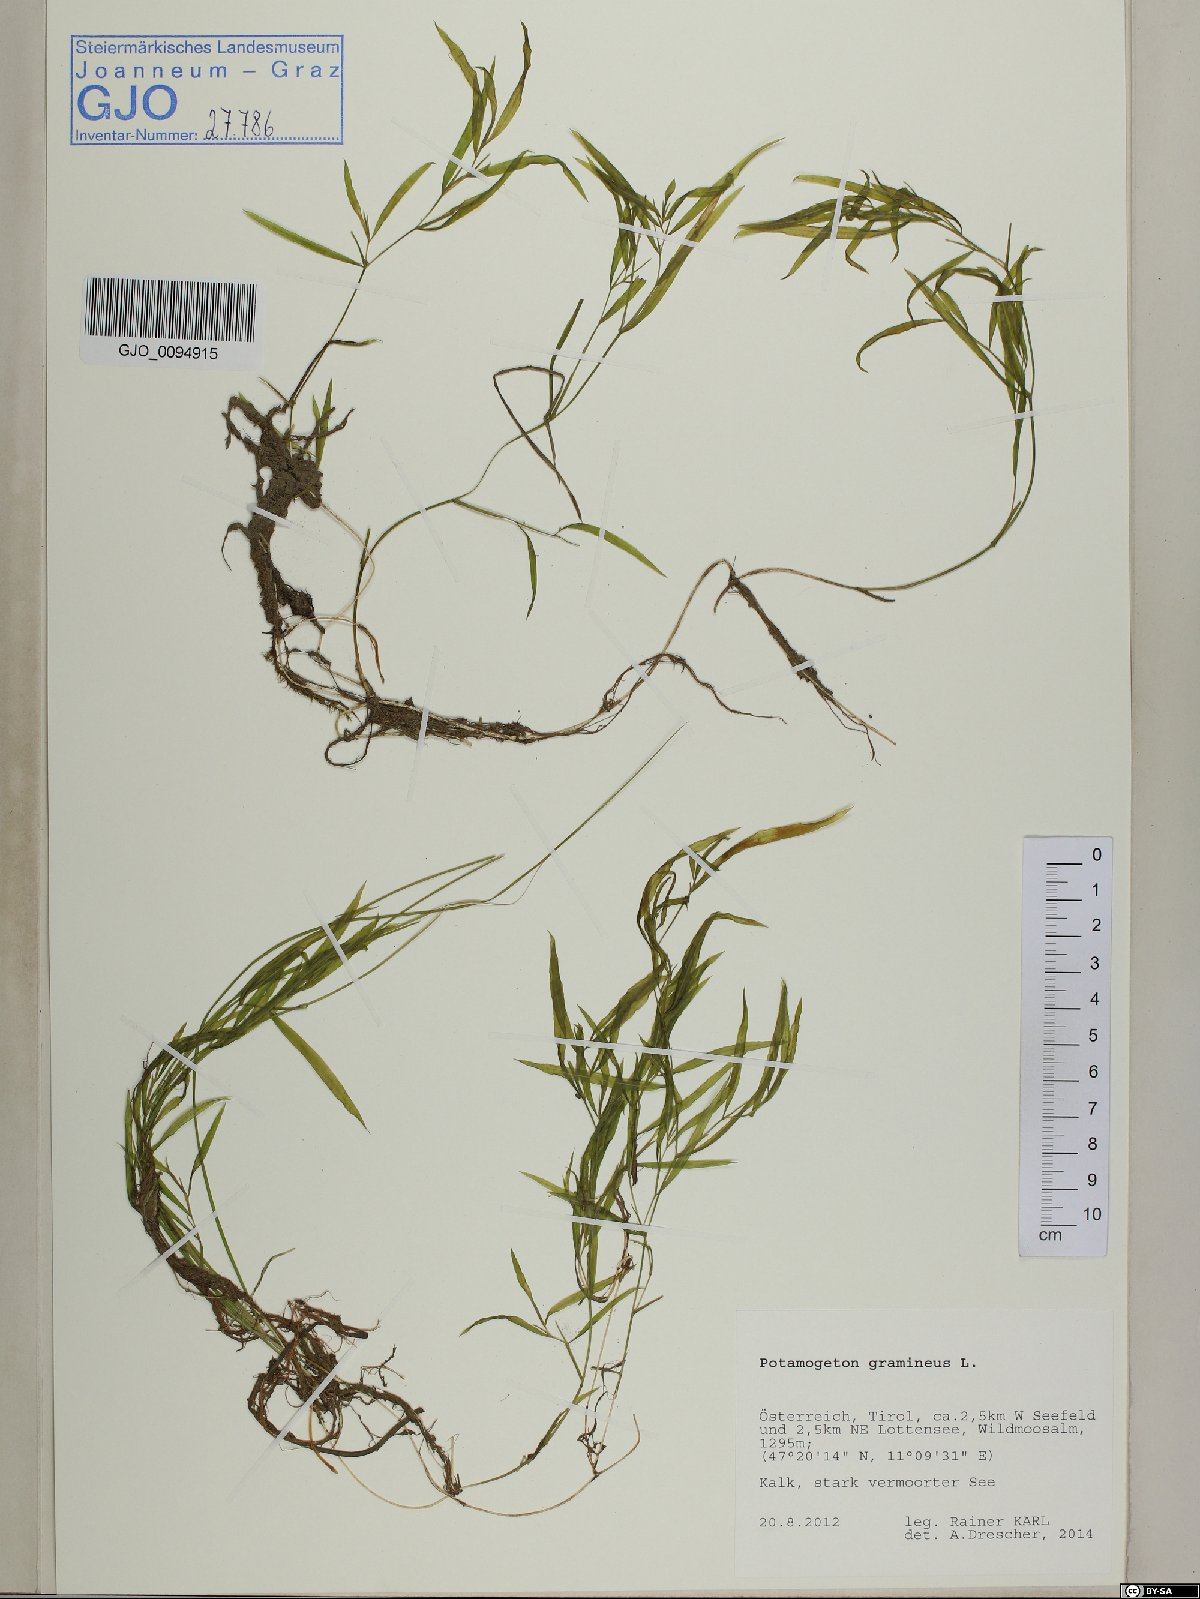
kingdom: Plantae
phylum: Tracheophyta
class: Liliopsida
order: Alismatales
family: Potamogetonaceae
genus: Potamogeton
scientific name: Potamogeton gramineus
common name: Various-leaved pondweed
